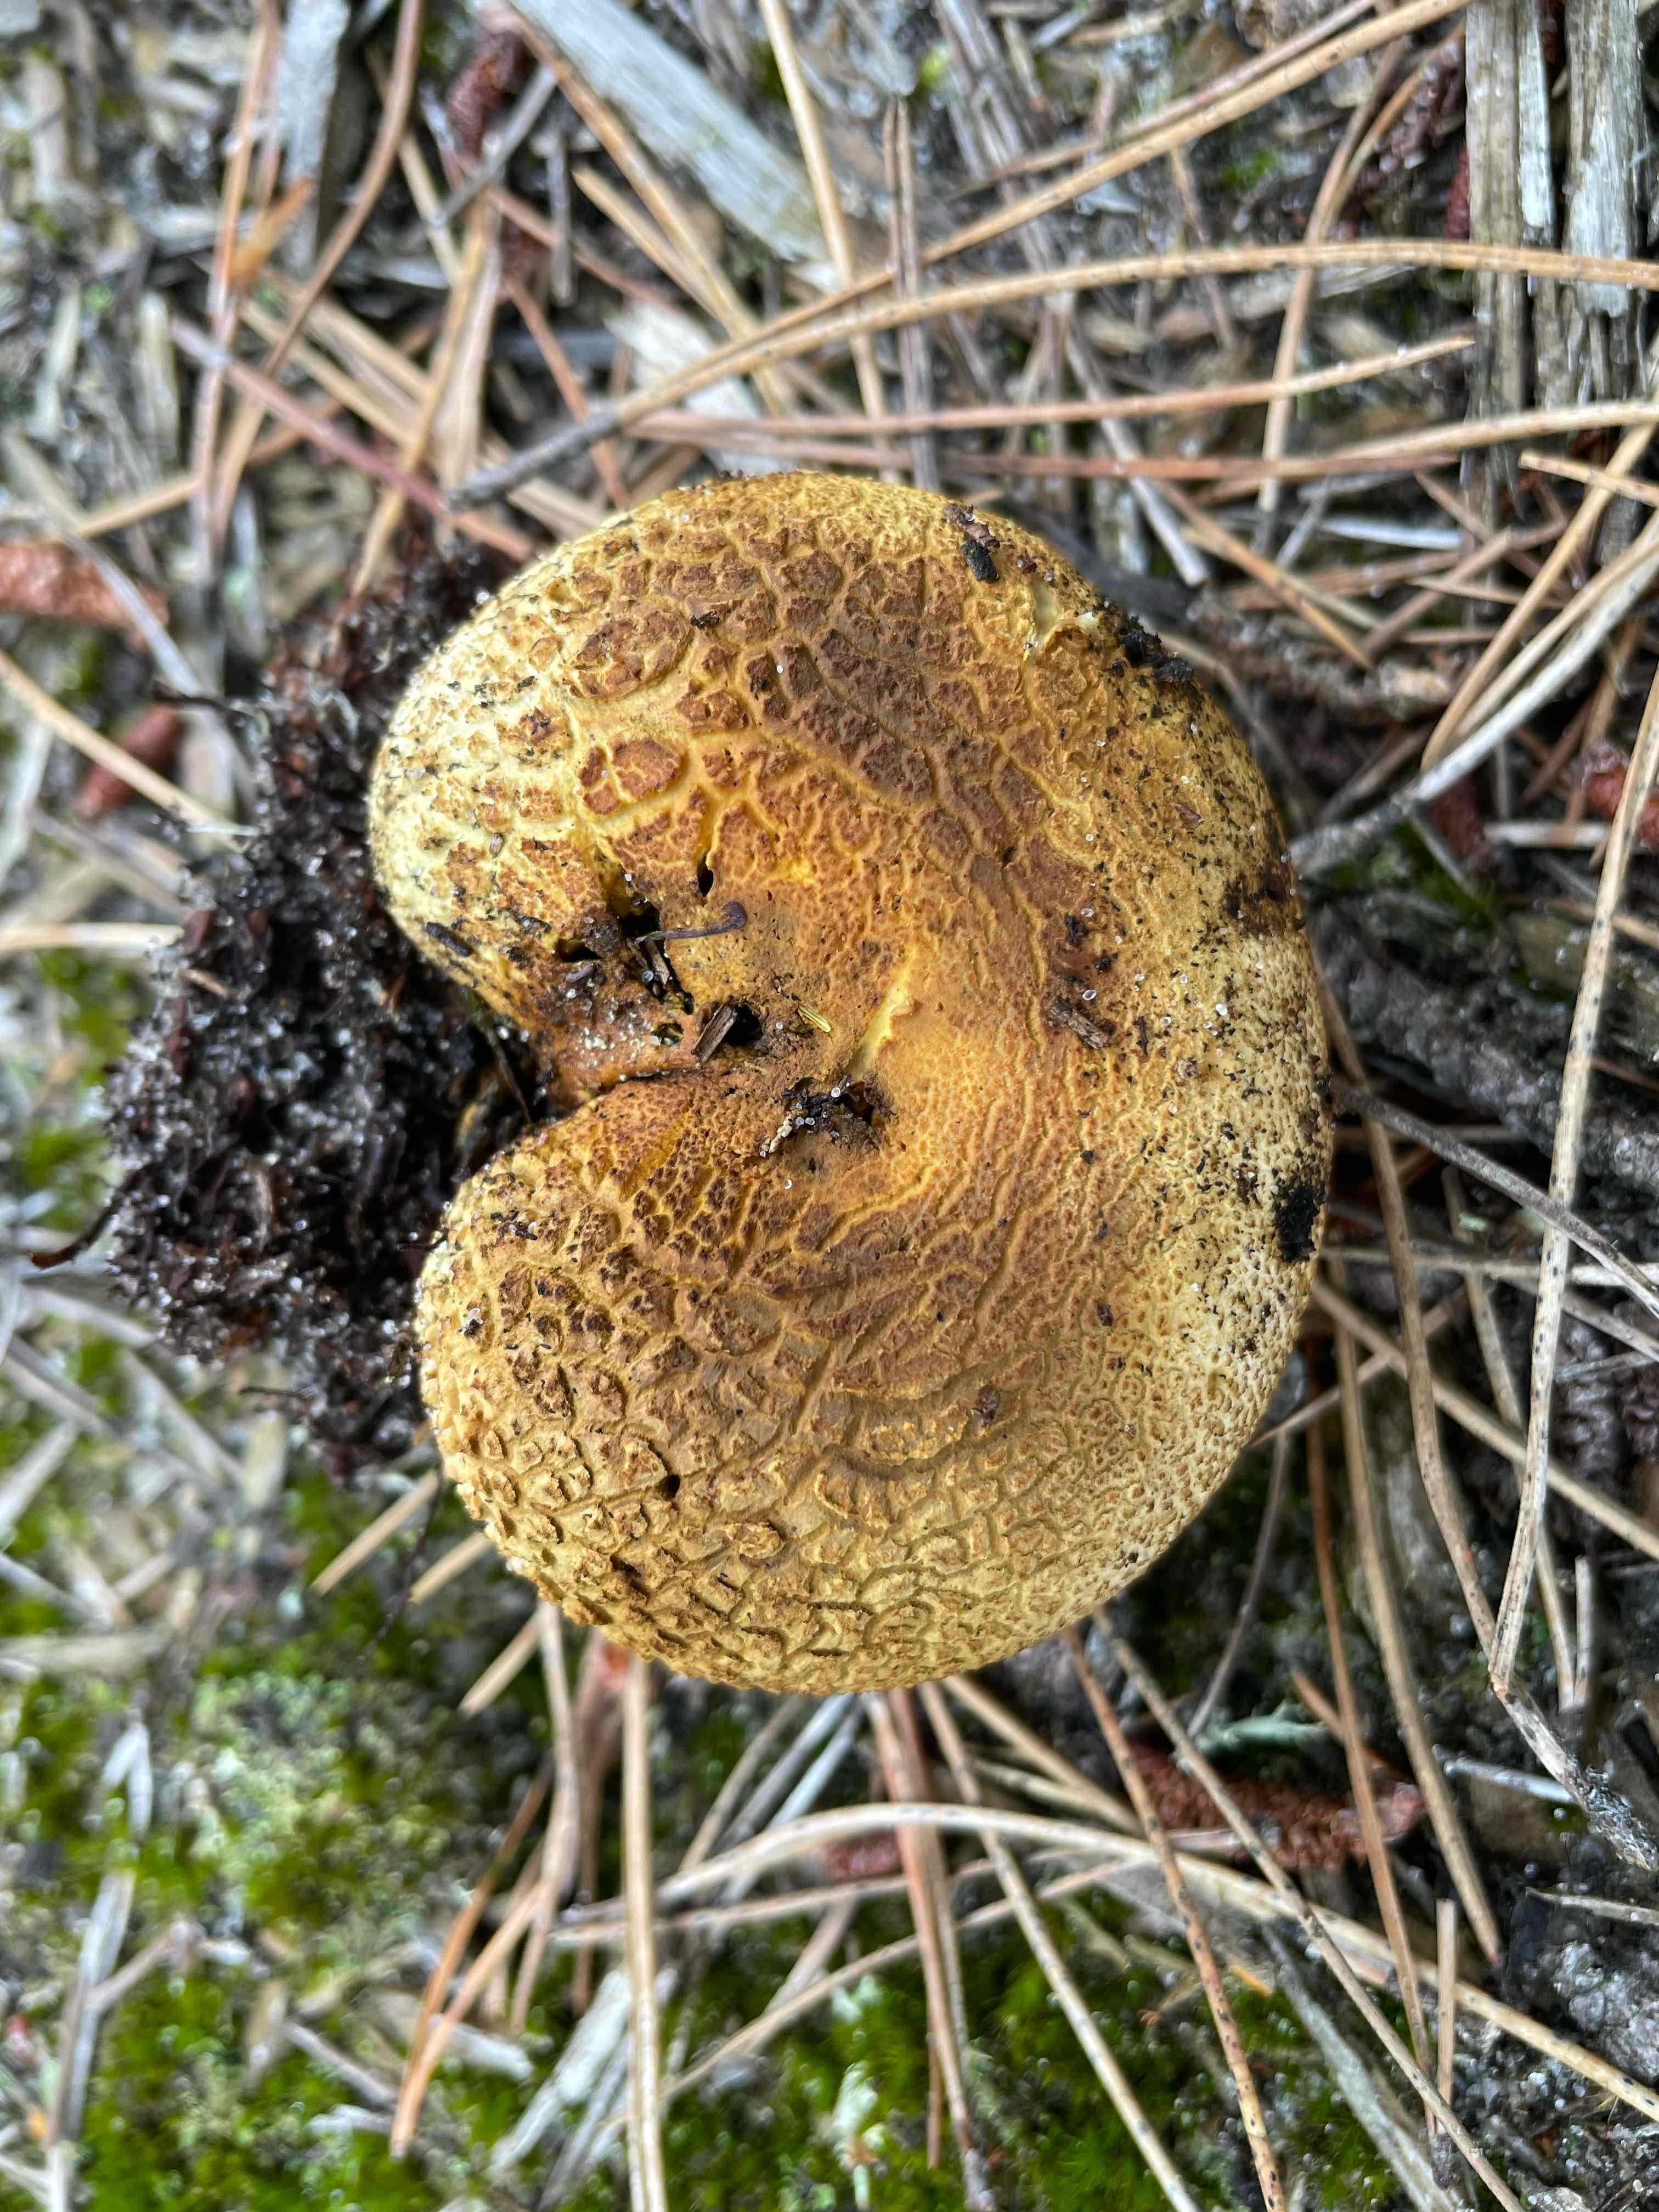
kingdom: Fungi
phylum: Basidiomycota
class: Agaricomycetes
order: Boletales
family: Sclerodermataceae
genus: Scleroderma
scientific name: Scleroderma citrinum
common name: almindelig bruskbold
